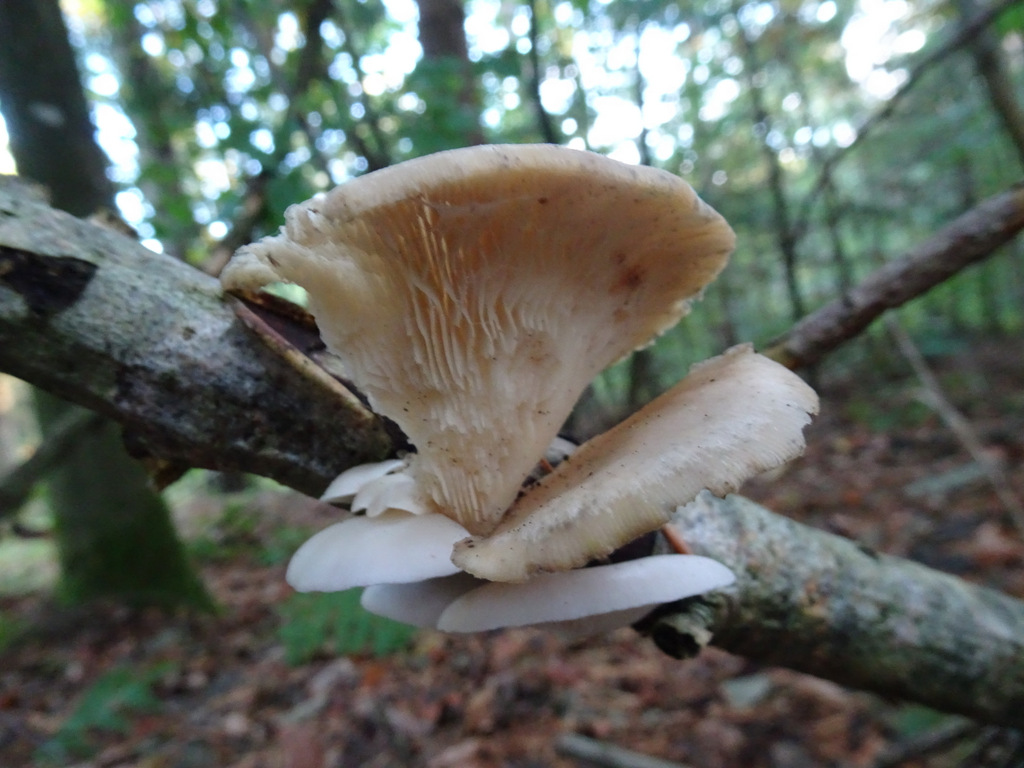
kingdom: Fungi
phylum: Basidiomycota
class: Agaricomycetes
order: Agaricales
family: Pleurotaceae
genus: Pleurotus
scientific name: Pleurotus pulmonarius
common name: sommer-østershat
